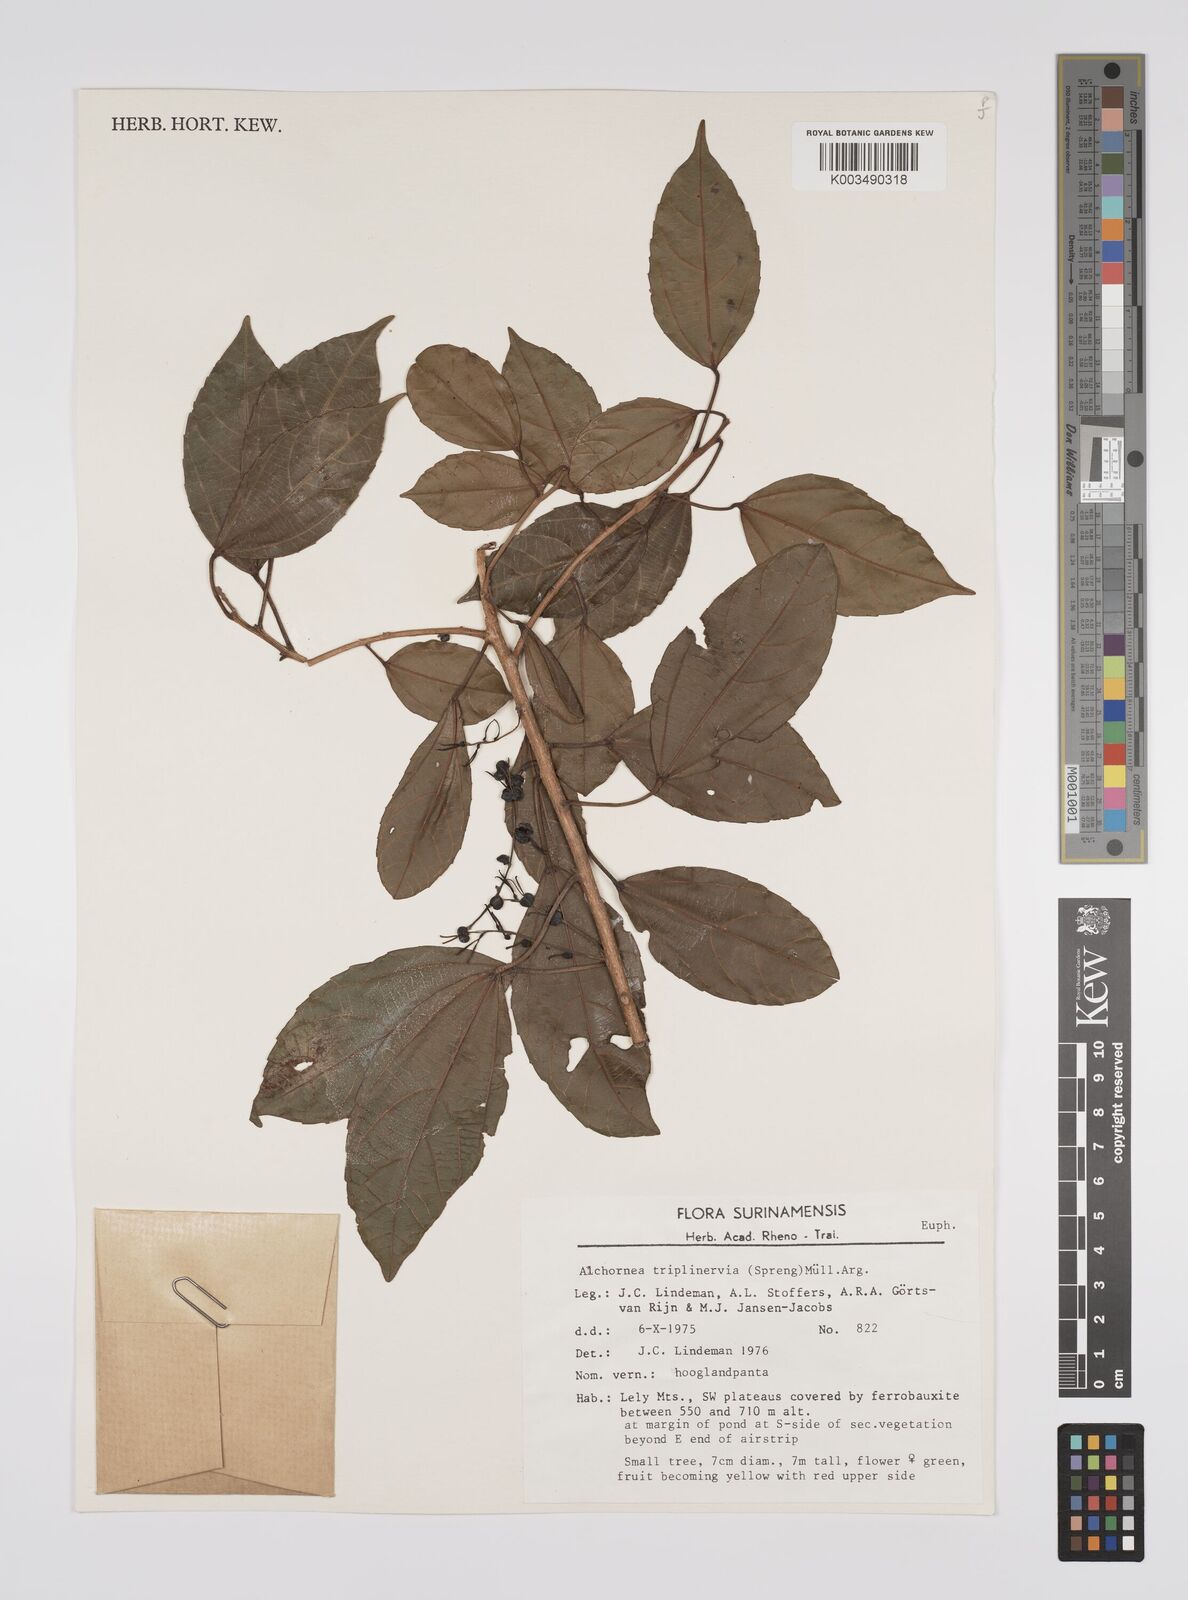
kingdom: Plantae
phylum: Tracheophyta
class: Magnoliopsida
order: Malpighiales
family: Euphorbiaceae
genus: Alchornea
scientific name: Alchornea triplinervia
